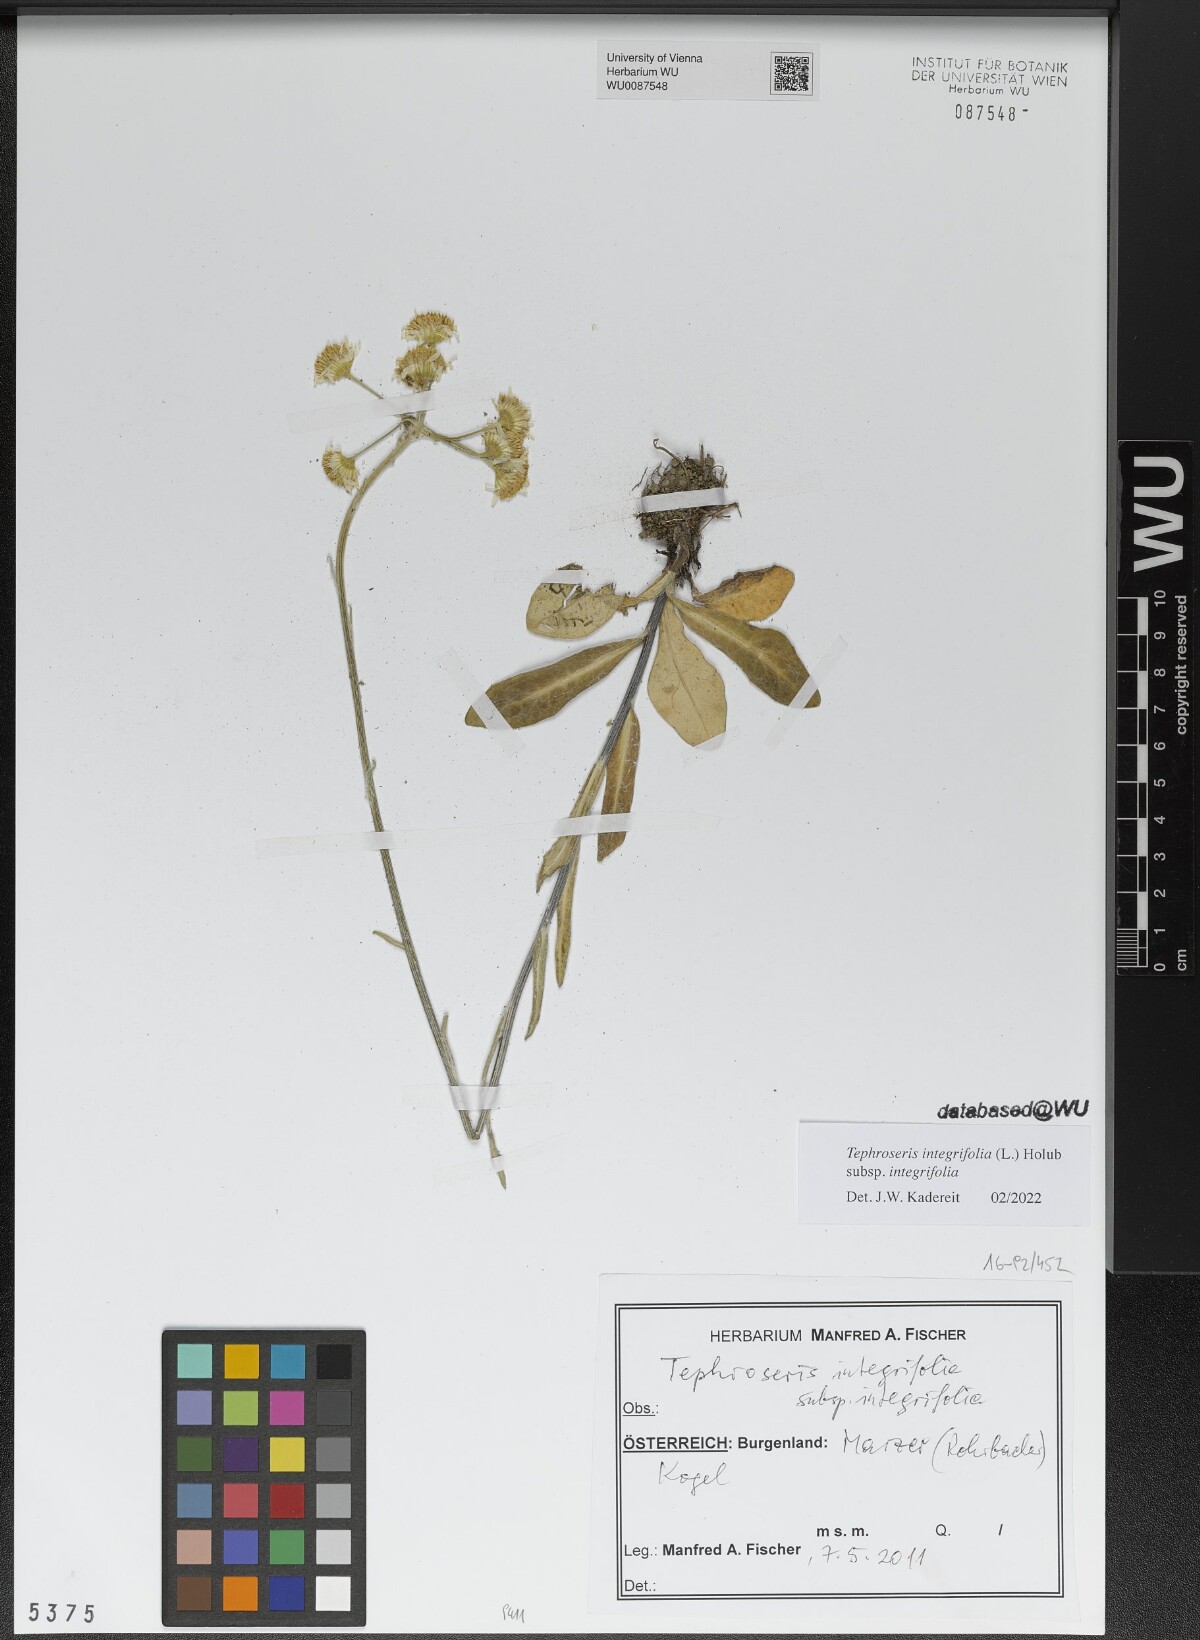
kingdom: Plantae
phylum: Tracheophyta
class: Magnoliopsida
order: Asterales
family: Asteraceae
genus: Tephroseris
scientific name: Tephroseris integrifolia
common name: Field fleawort
